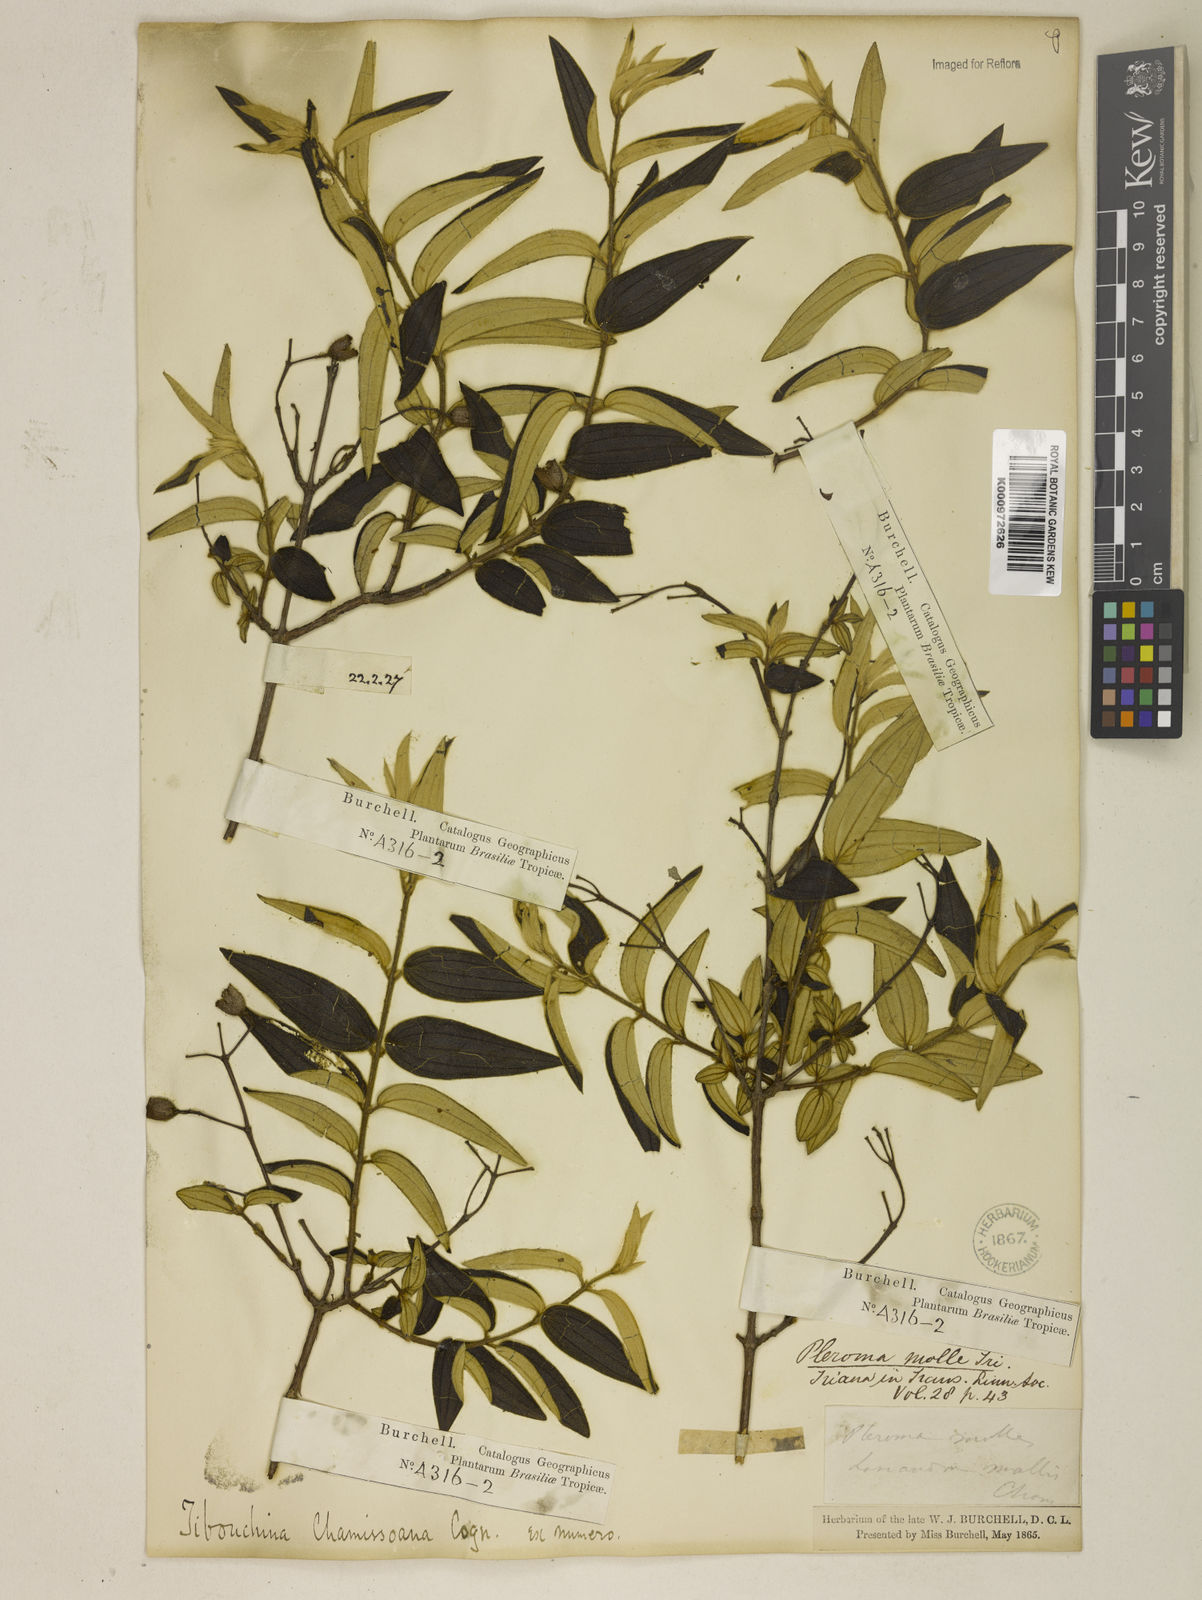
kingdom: Plantae
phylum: Tracheophyta
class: Magnoliopsida
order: Myrtales
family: Melastomataceae
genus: Pleroma
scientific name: Pleroma velutinum
